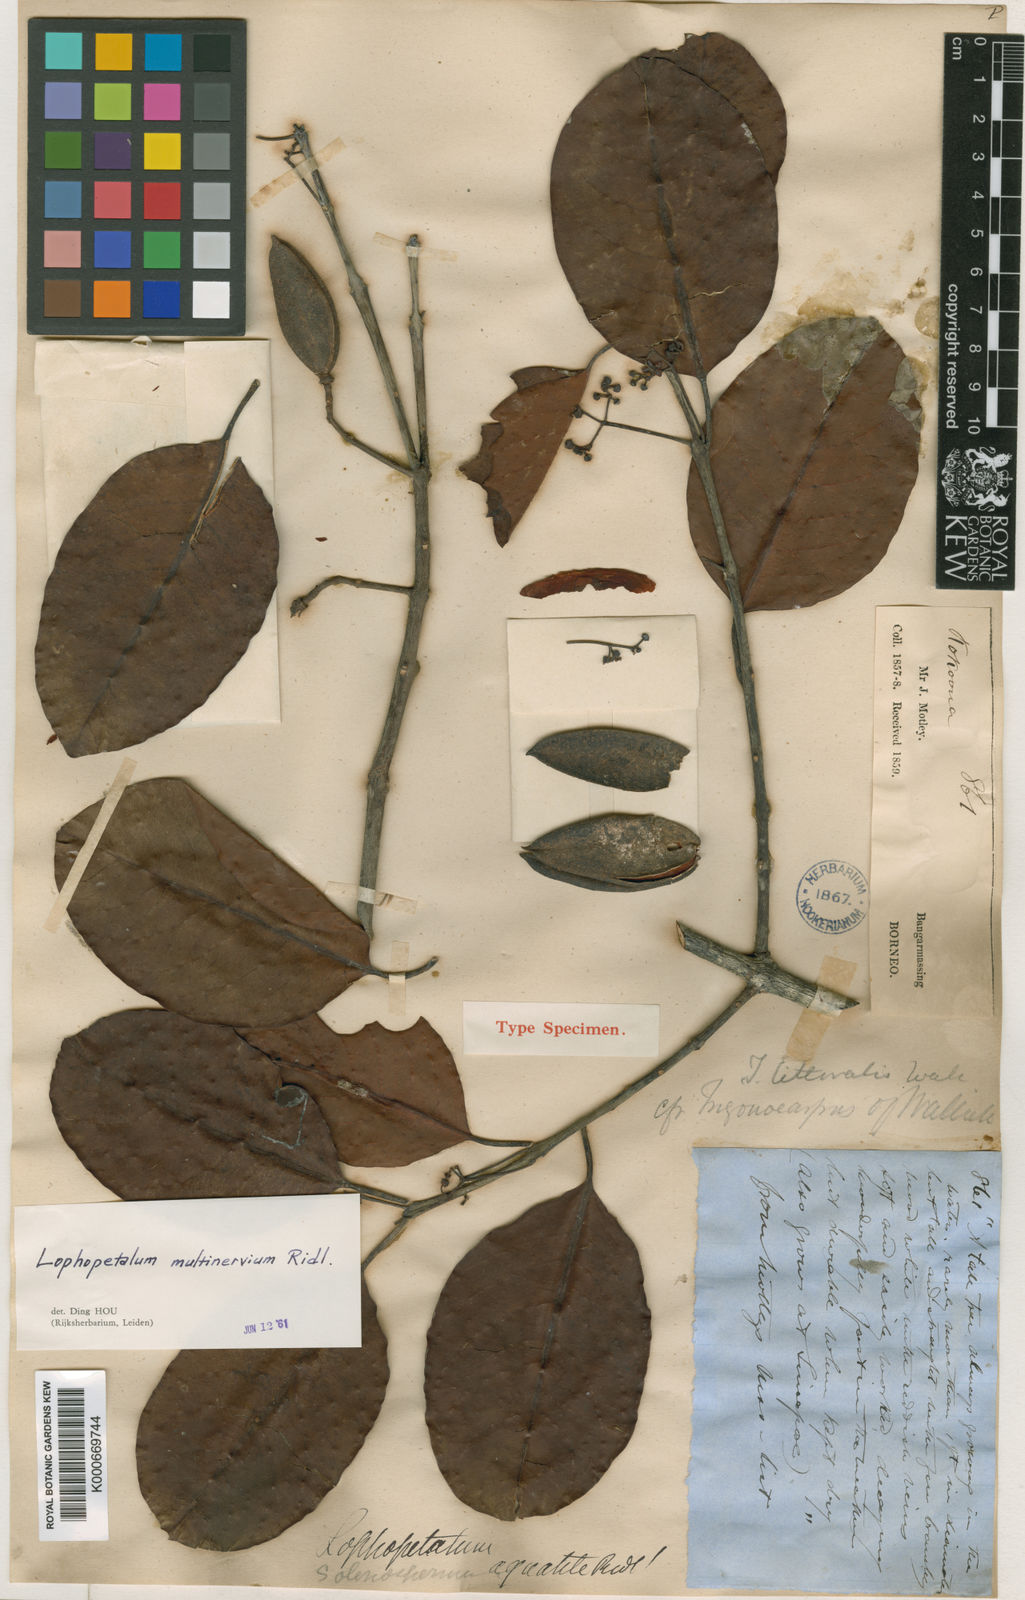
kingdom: Plantae
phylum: Tracheophyta
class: Magnoliopsida
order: Celastrales
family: Celastraceae
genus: Lophopetalum
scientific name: Lophopetalum multinervium
